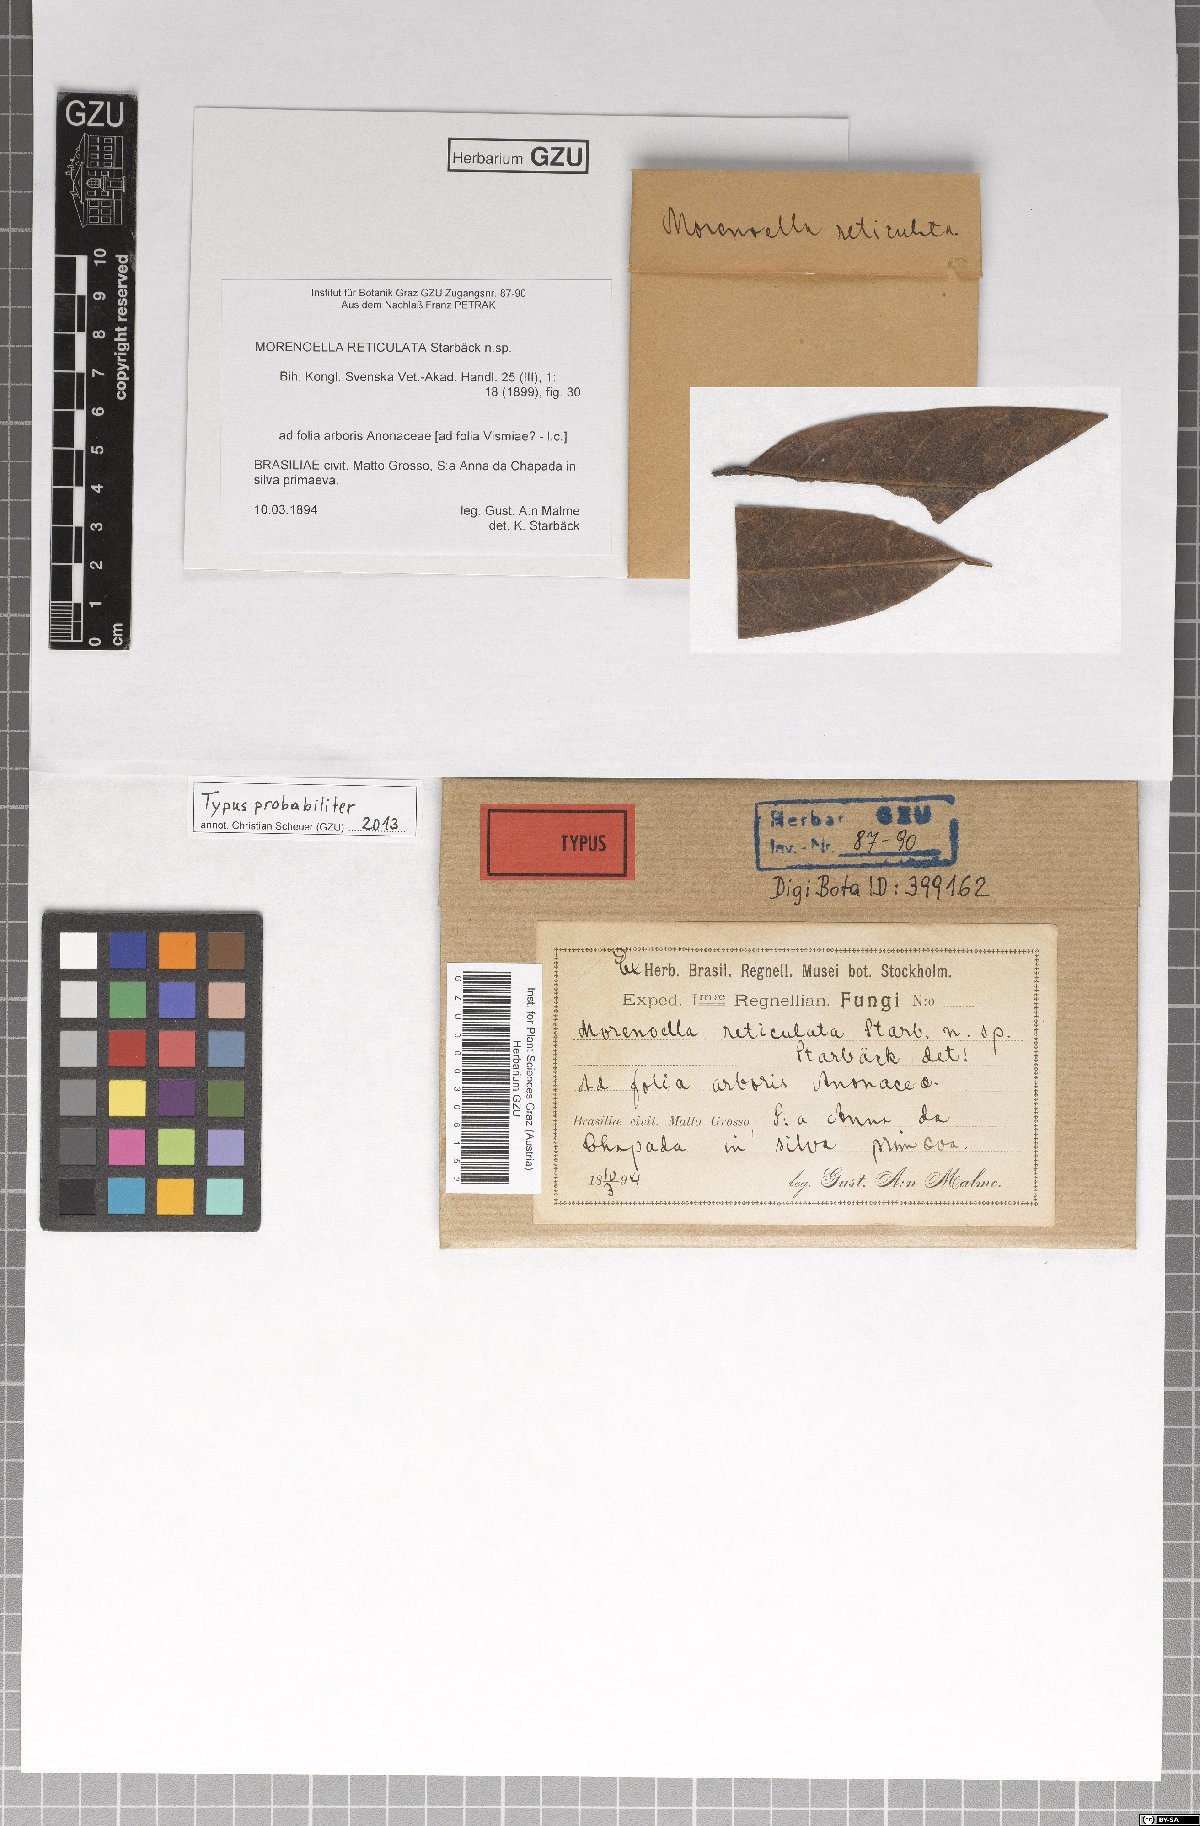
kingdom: Fungi
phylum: Ascomycota
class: Dothideomycetes
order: Asterinales
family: Asterinaceae
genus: Morenoella
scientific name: Morenoella
